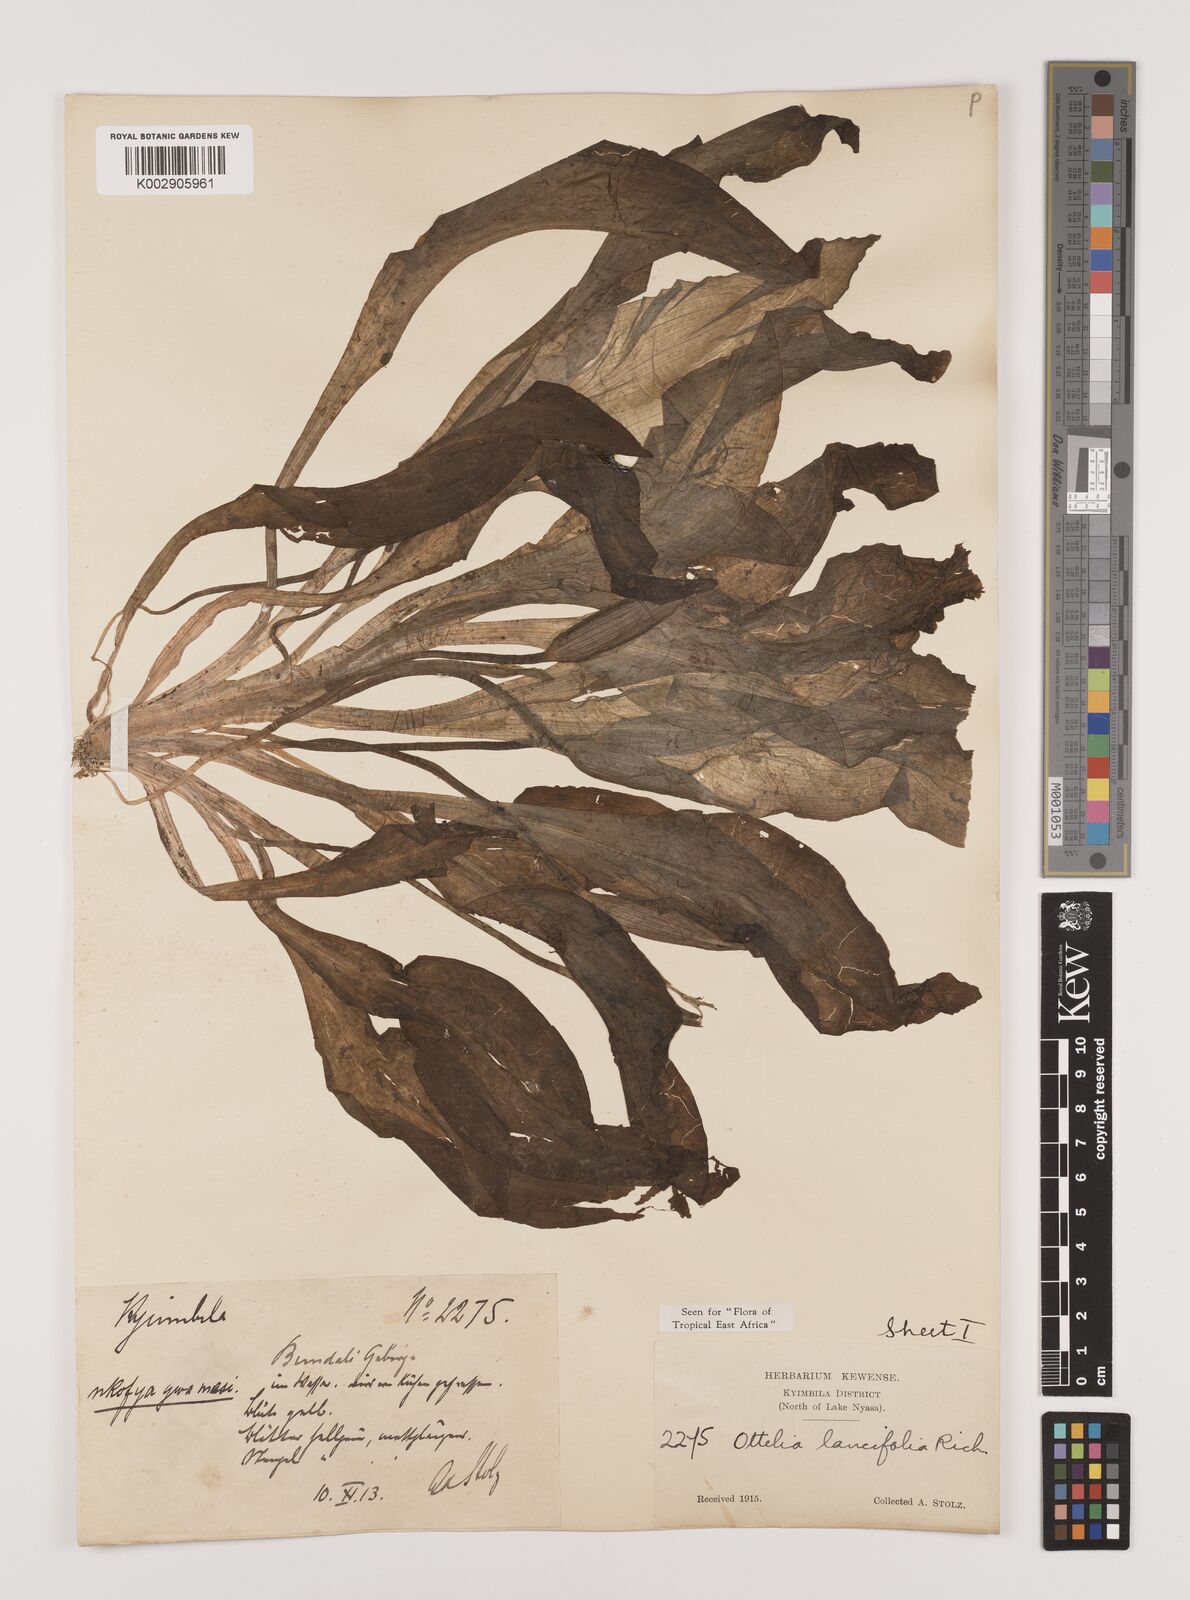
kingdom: Plantae
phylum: Tracheophyta
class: Liliopsida
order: Alismatales
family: Hydrocharitaceae
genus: Ottelia
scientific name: Ottelia ulvifolia
